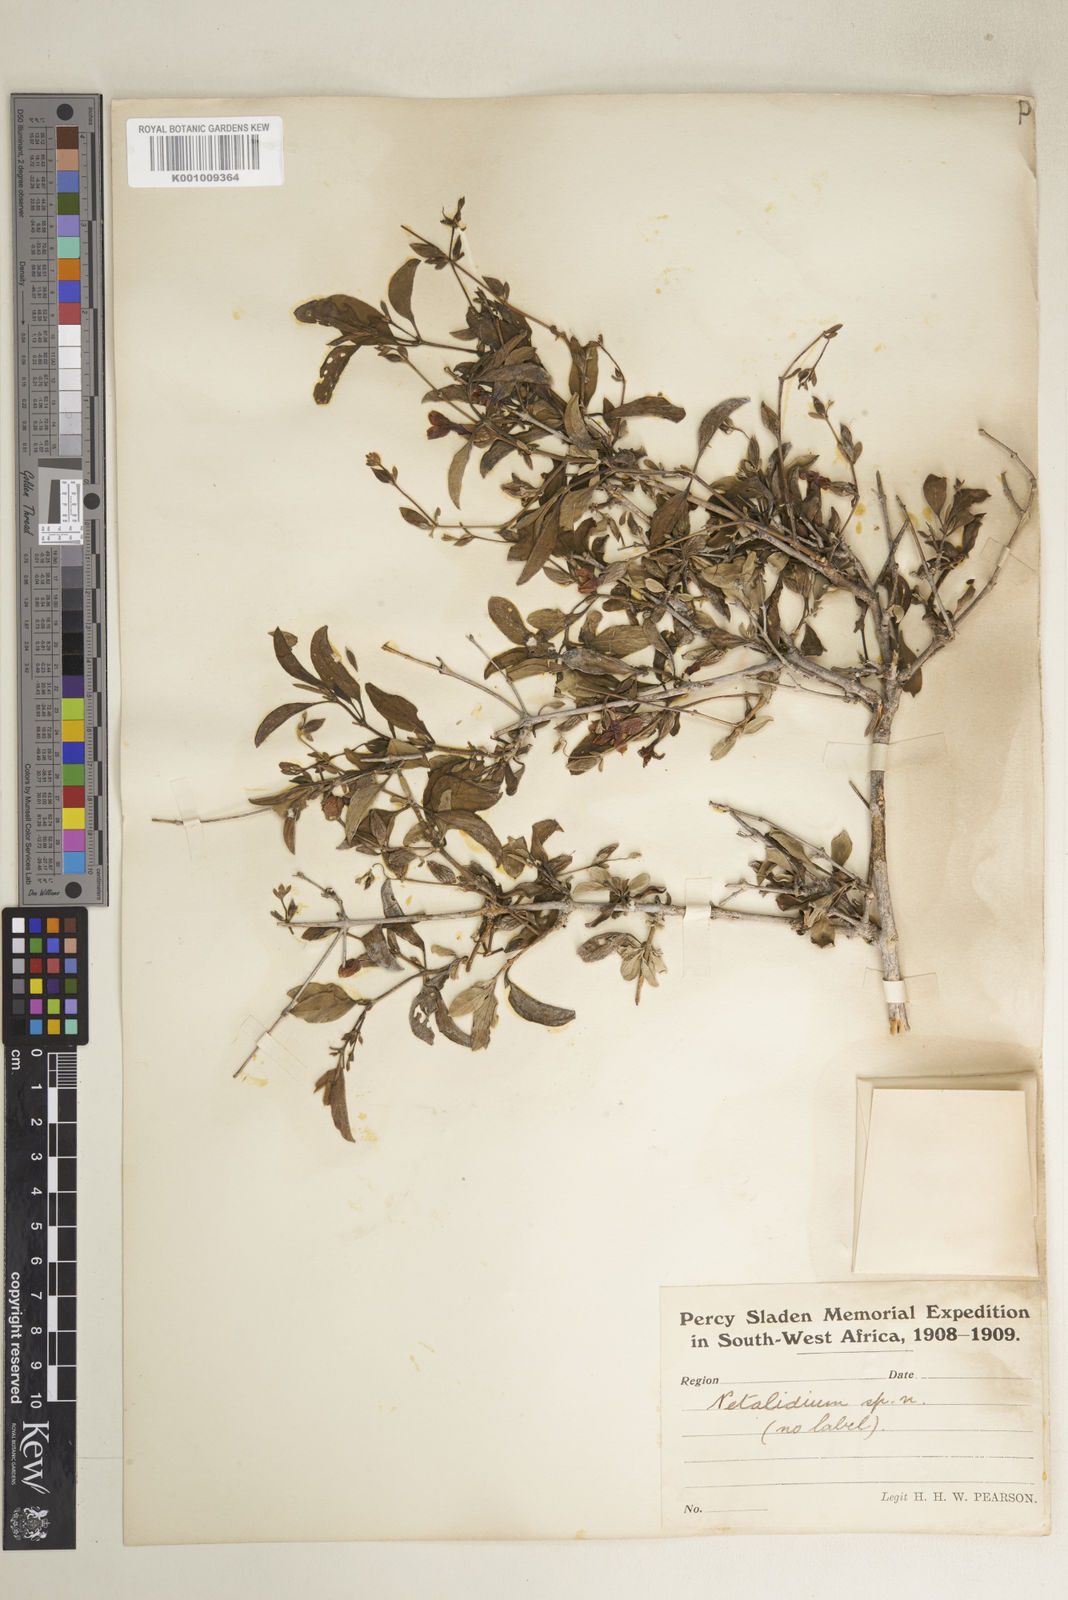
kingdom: Plantae
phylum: Tracheophyta
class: Magnoliopsida
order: Lamiales
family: Acanthaceae
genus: Petalidium
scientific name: Petalidium physaloides
